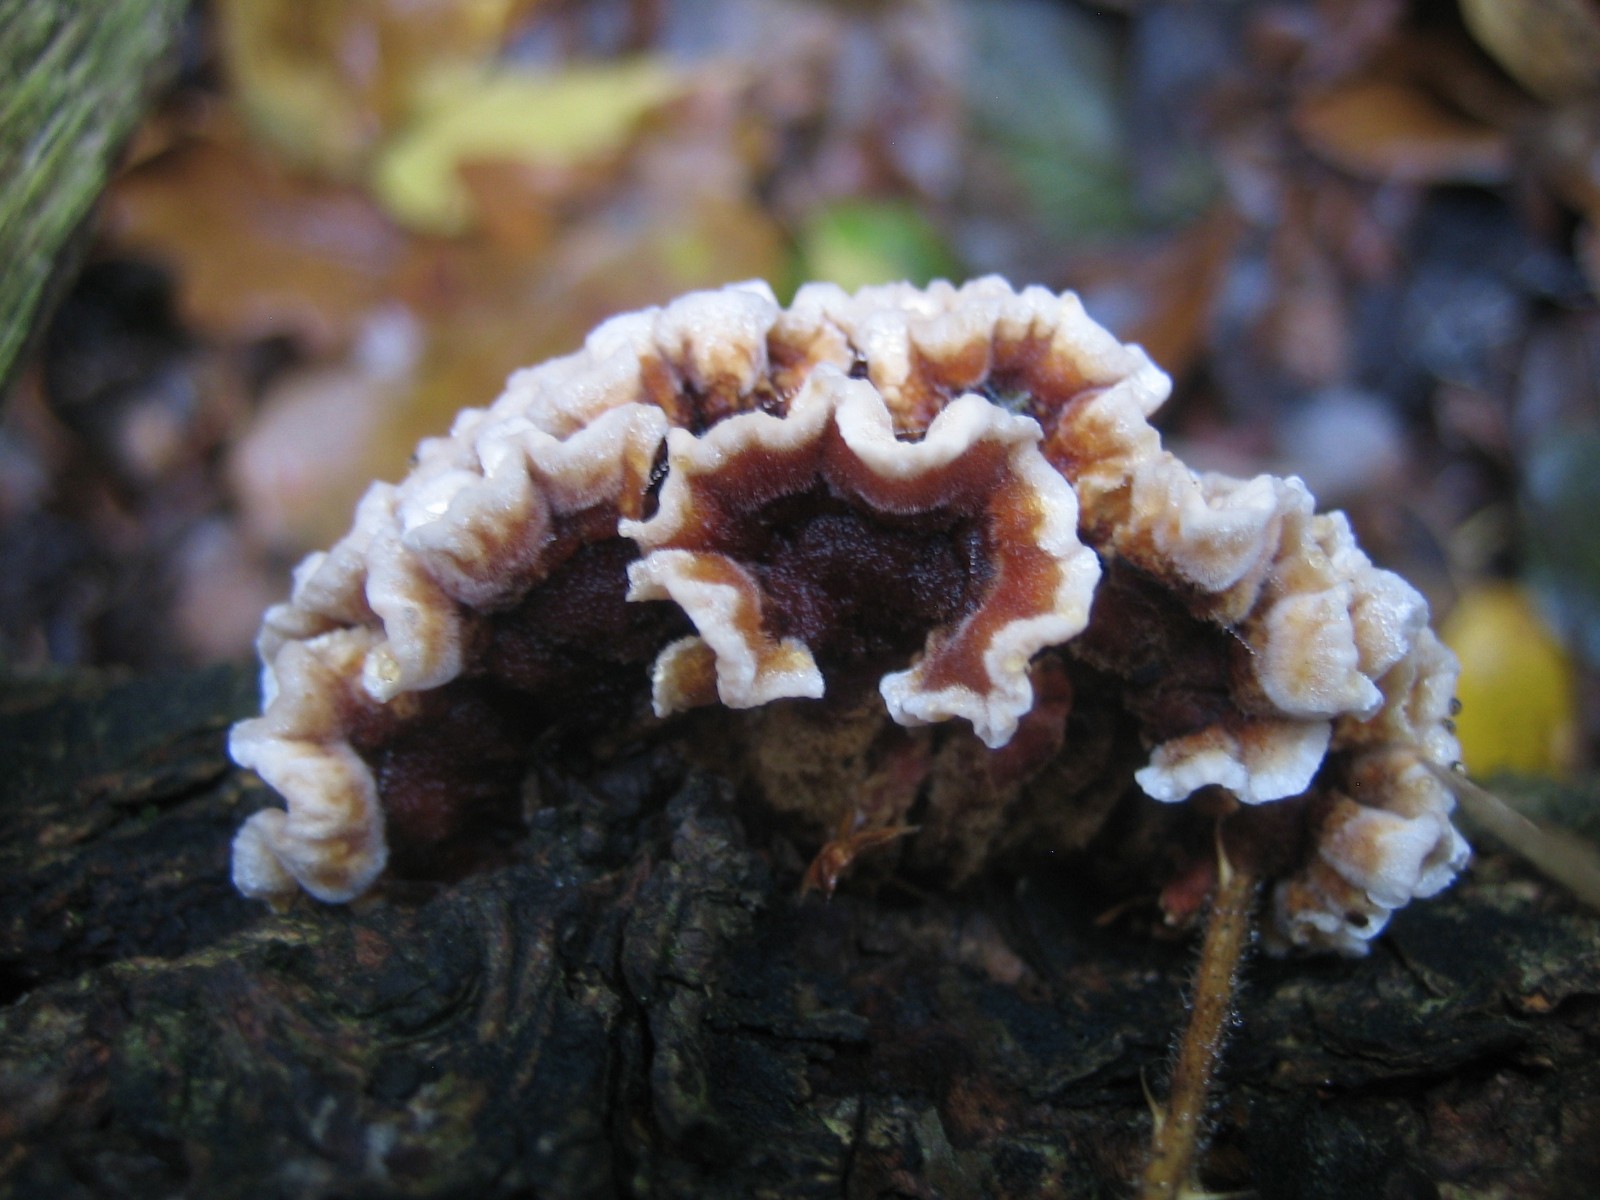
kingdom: Fungi
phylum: Basidiomycota
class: Agaricomycetes
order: Russulales
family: Stereaceae
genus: Stereum
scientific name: Stereum hirsutum
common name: håret lædersvamp
